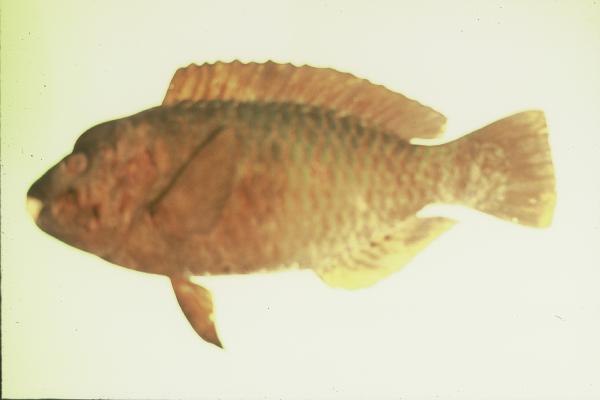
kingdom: Animalia
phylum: Chordata
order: Perciformes
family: Scaridae
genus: Chlorurus
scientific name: Chlorurus oedema
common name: Knothead parrotfish
